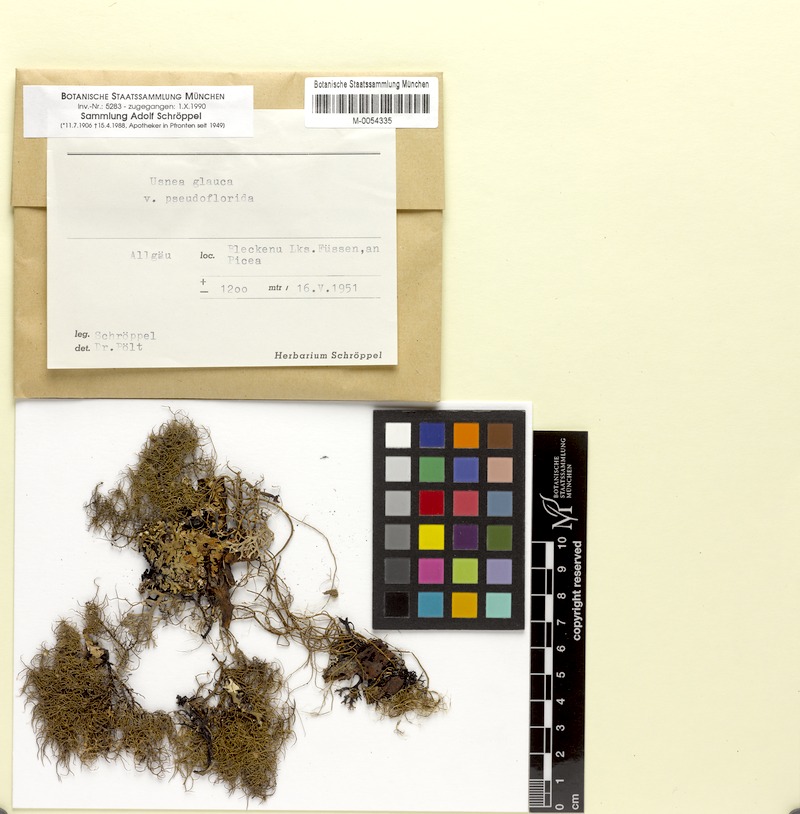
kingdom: Fungi
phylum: Ascomycota
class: Lecanoromycetes
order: Lecanorales
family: Parmeliaceae
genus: Usnea
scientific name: Usnea intermedia
